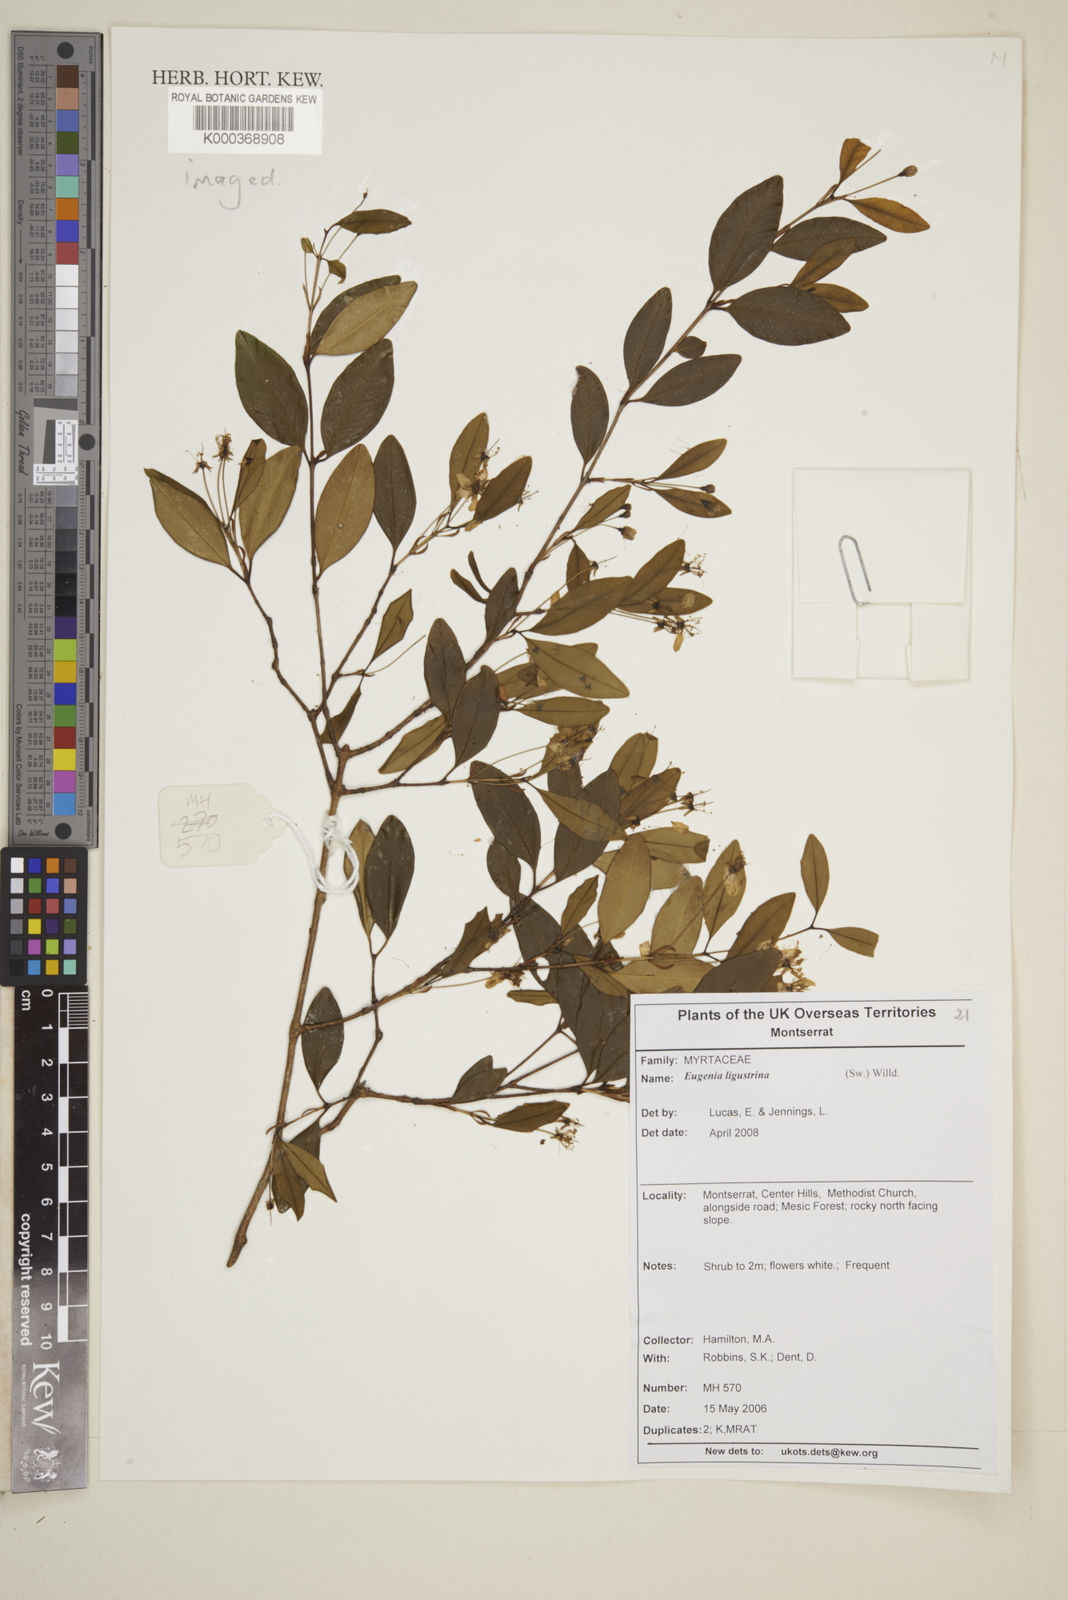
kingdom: Plantae
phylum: Tracheophyta
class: Magnoliopsida
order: Myrtales
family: Myrtaceae
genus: Eugenia
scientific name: Eugenia ligustrina
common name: Privet stopper
